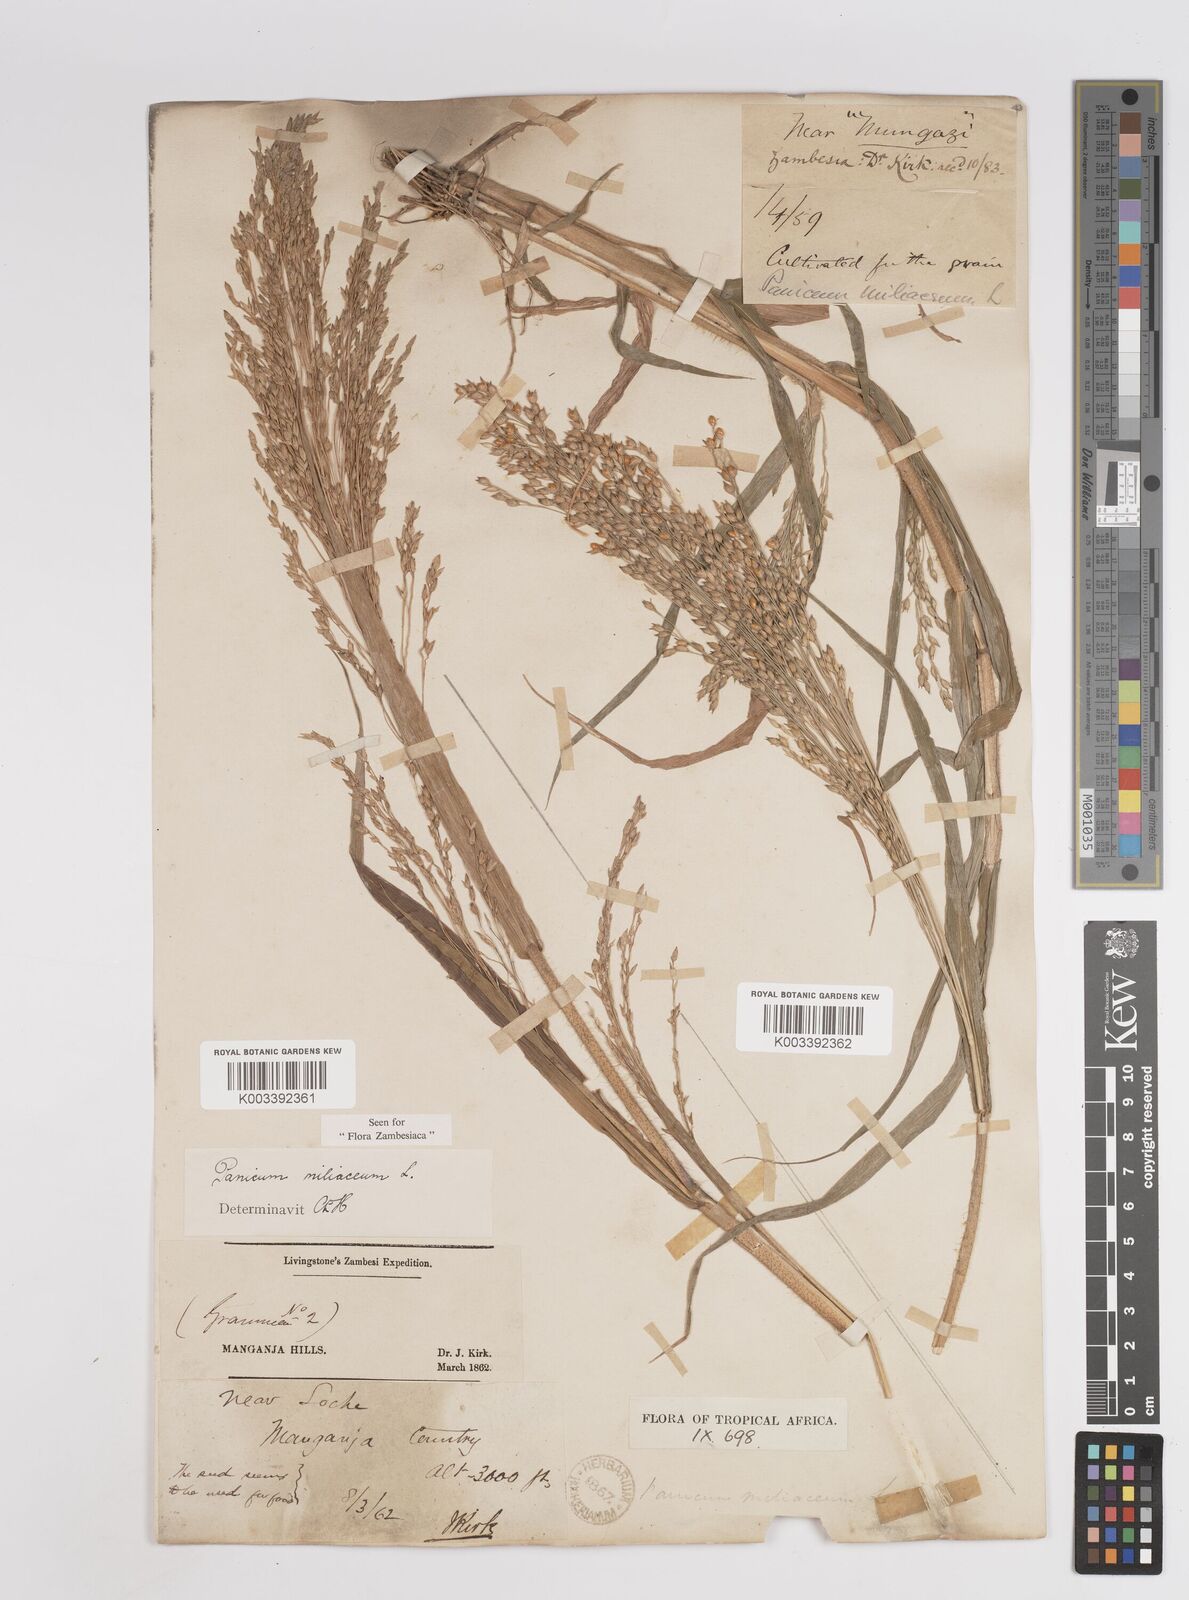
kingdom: Plantae
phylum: Tracheophyta
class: Liliopsida
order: Poales
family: Poaceae
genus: Panicum
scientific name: Panicum miliaceum
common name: Common millet
